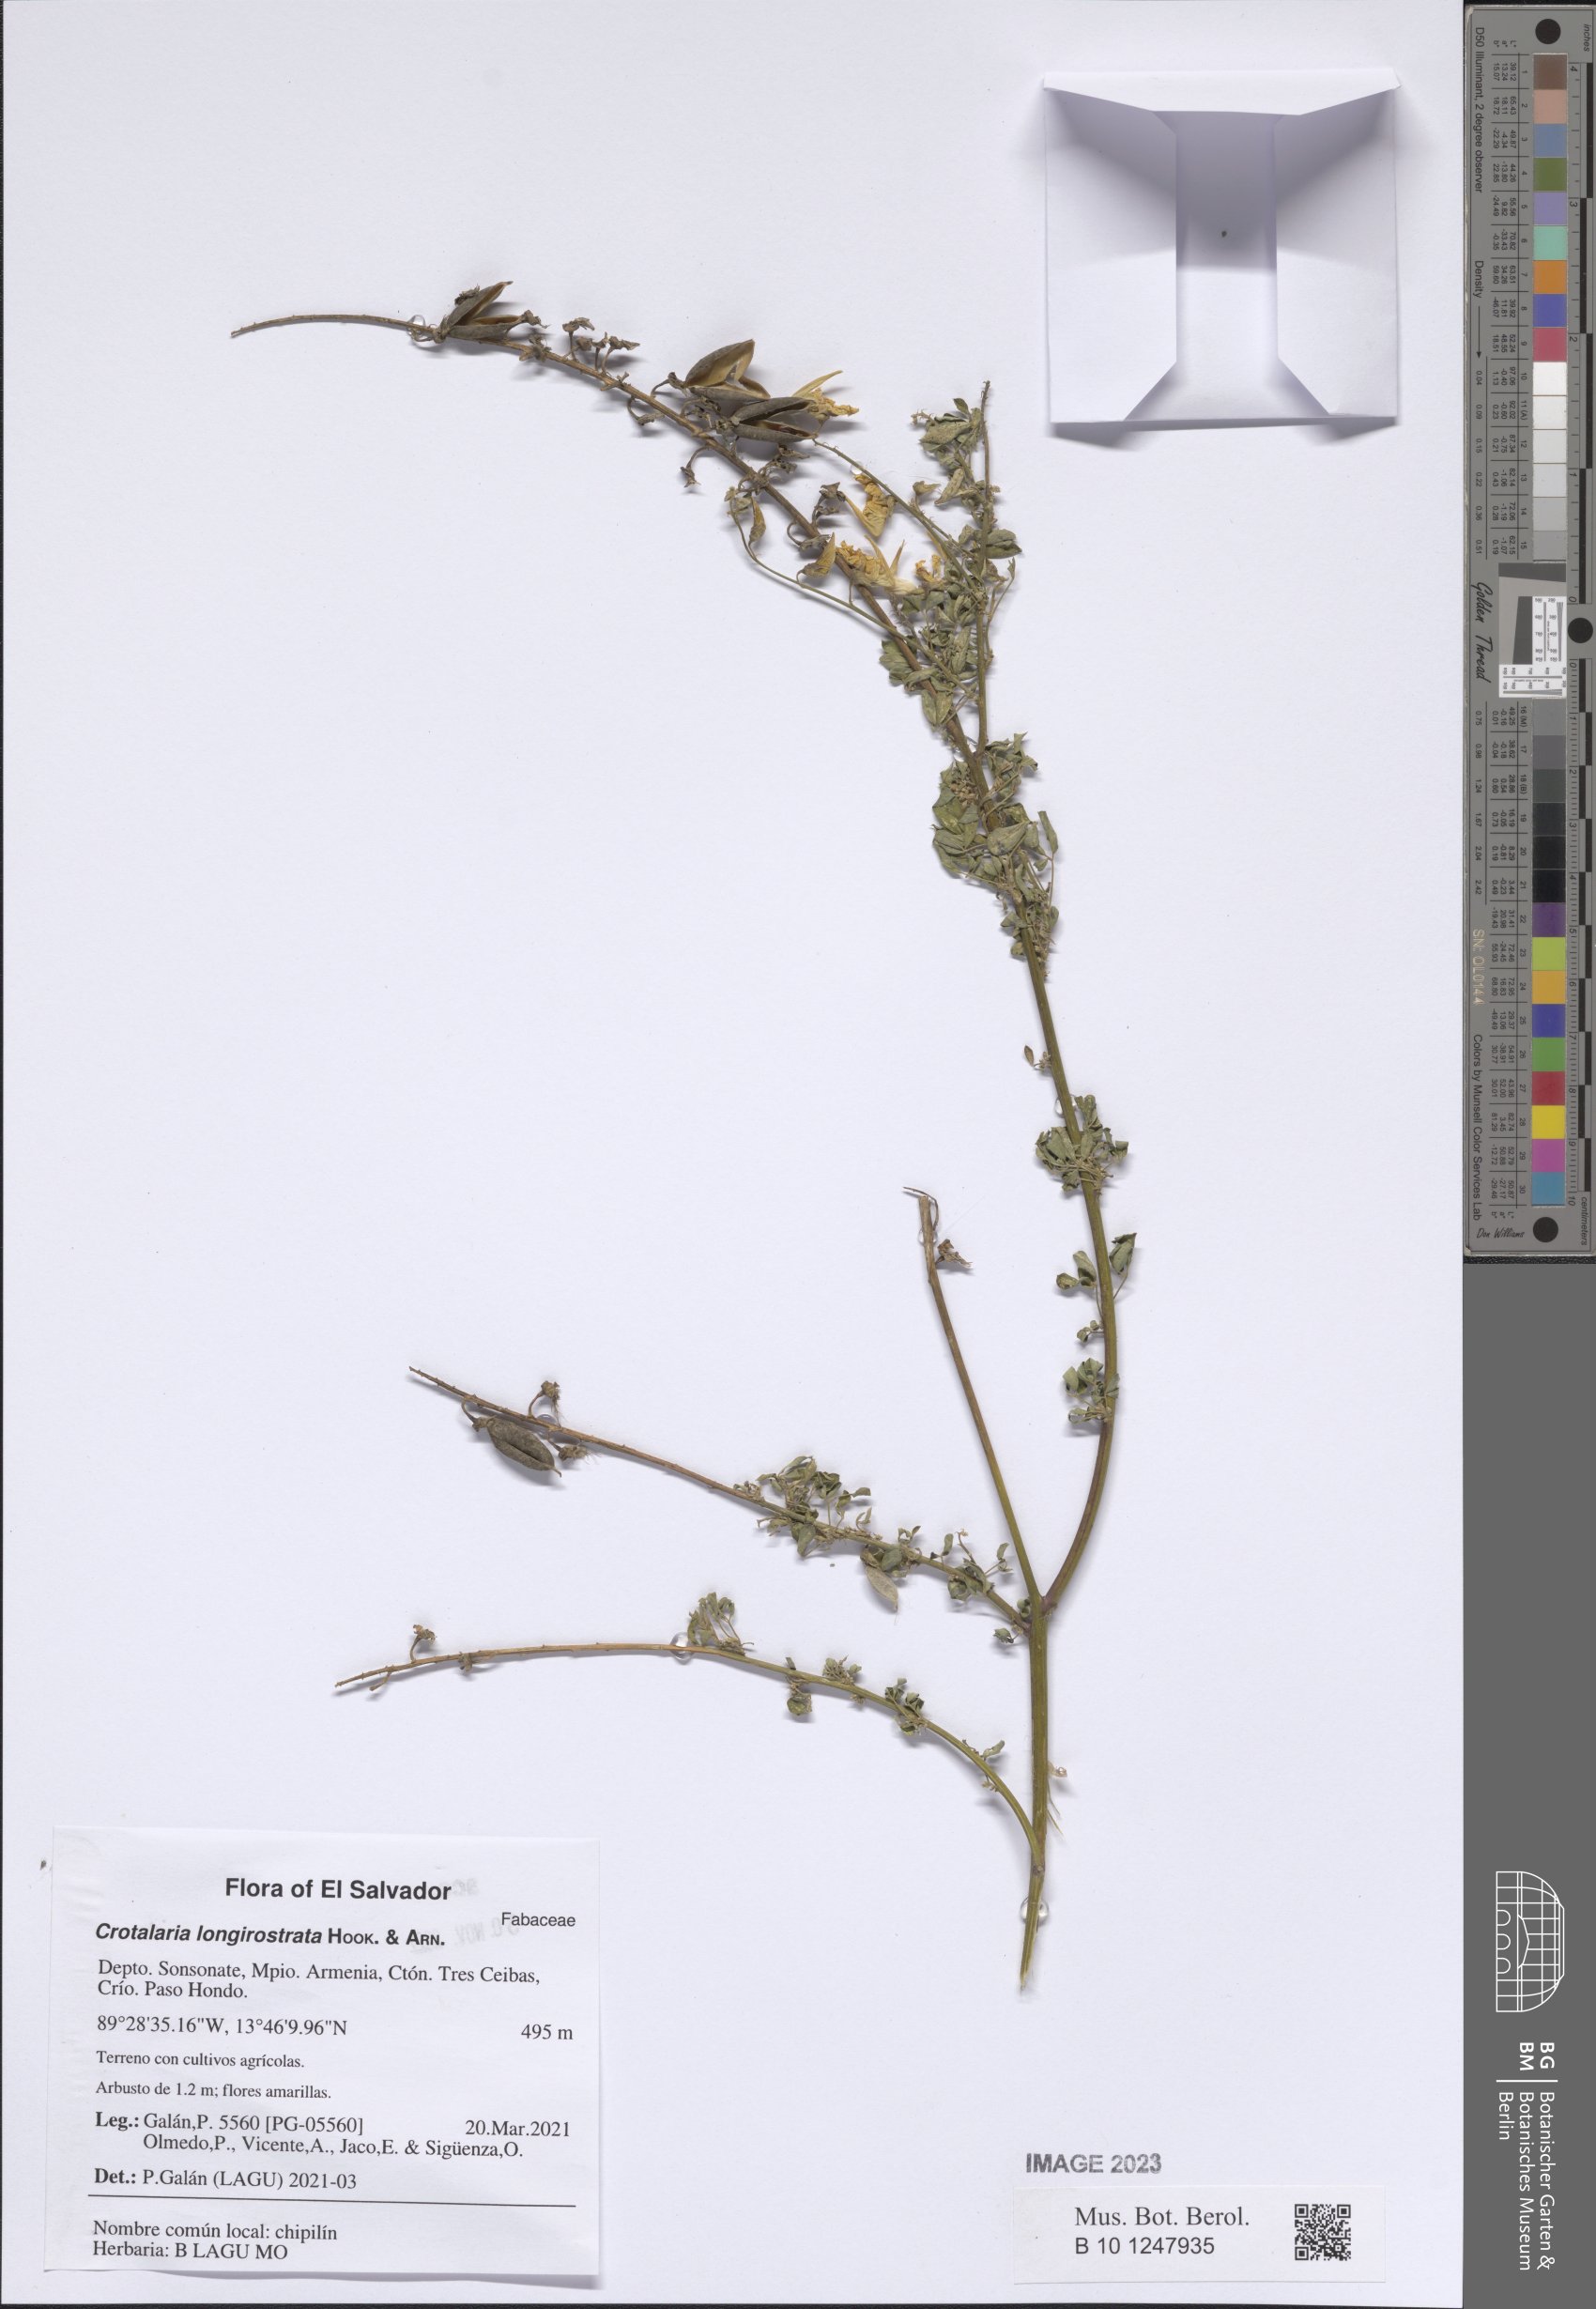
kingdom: Plantae
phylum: Tracheophyta
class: Magnoliopsida
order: Fabales
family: Fabaceae
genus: Crotalaria
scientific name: Crotalaria longirostrata
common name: Longbeak rattlebox
